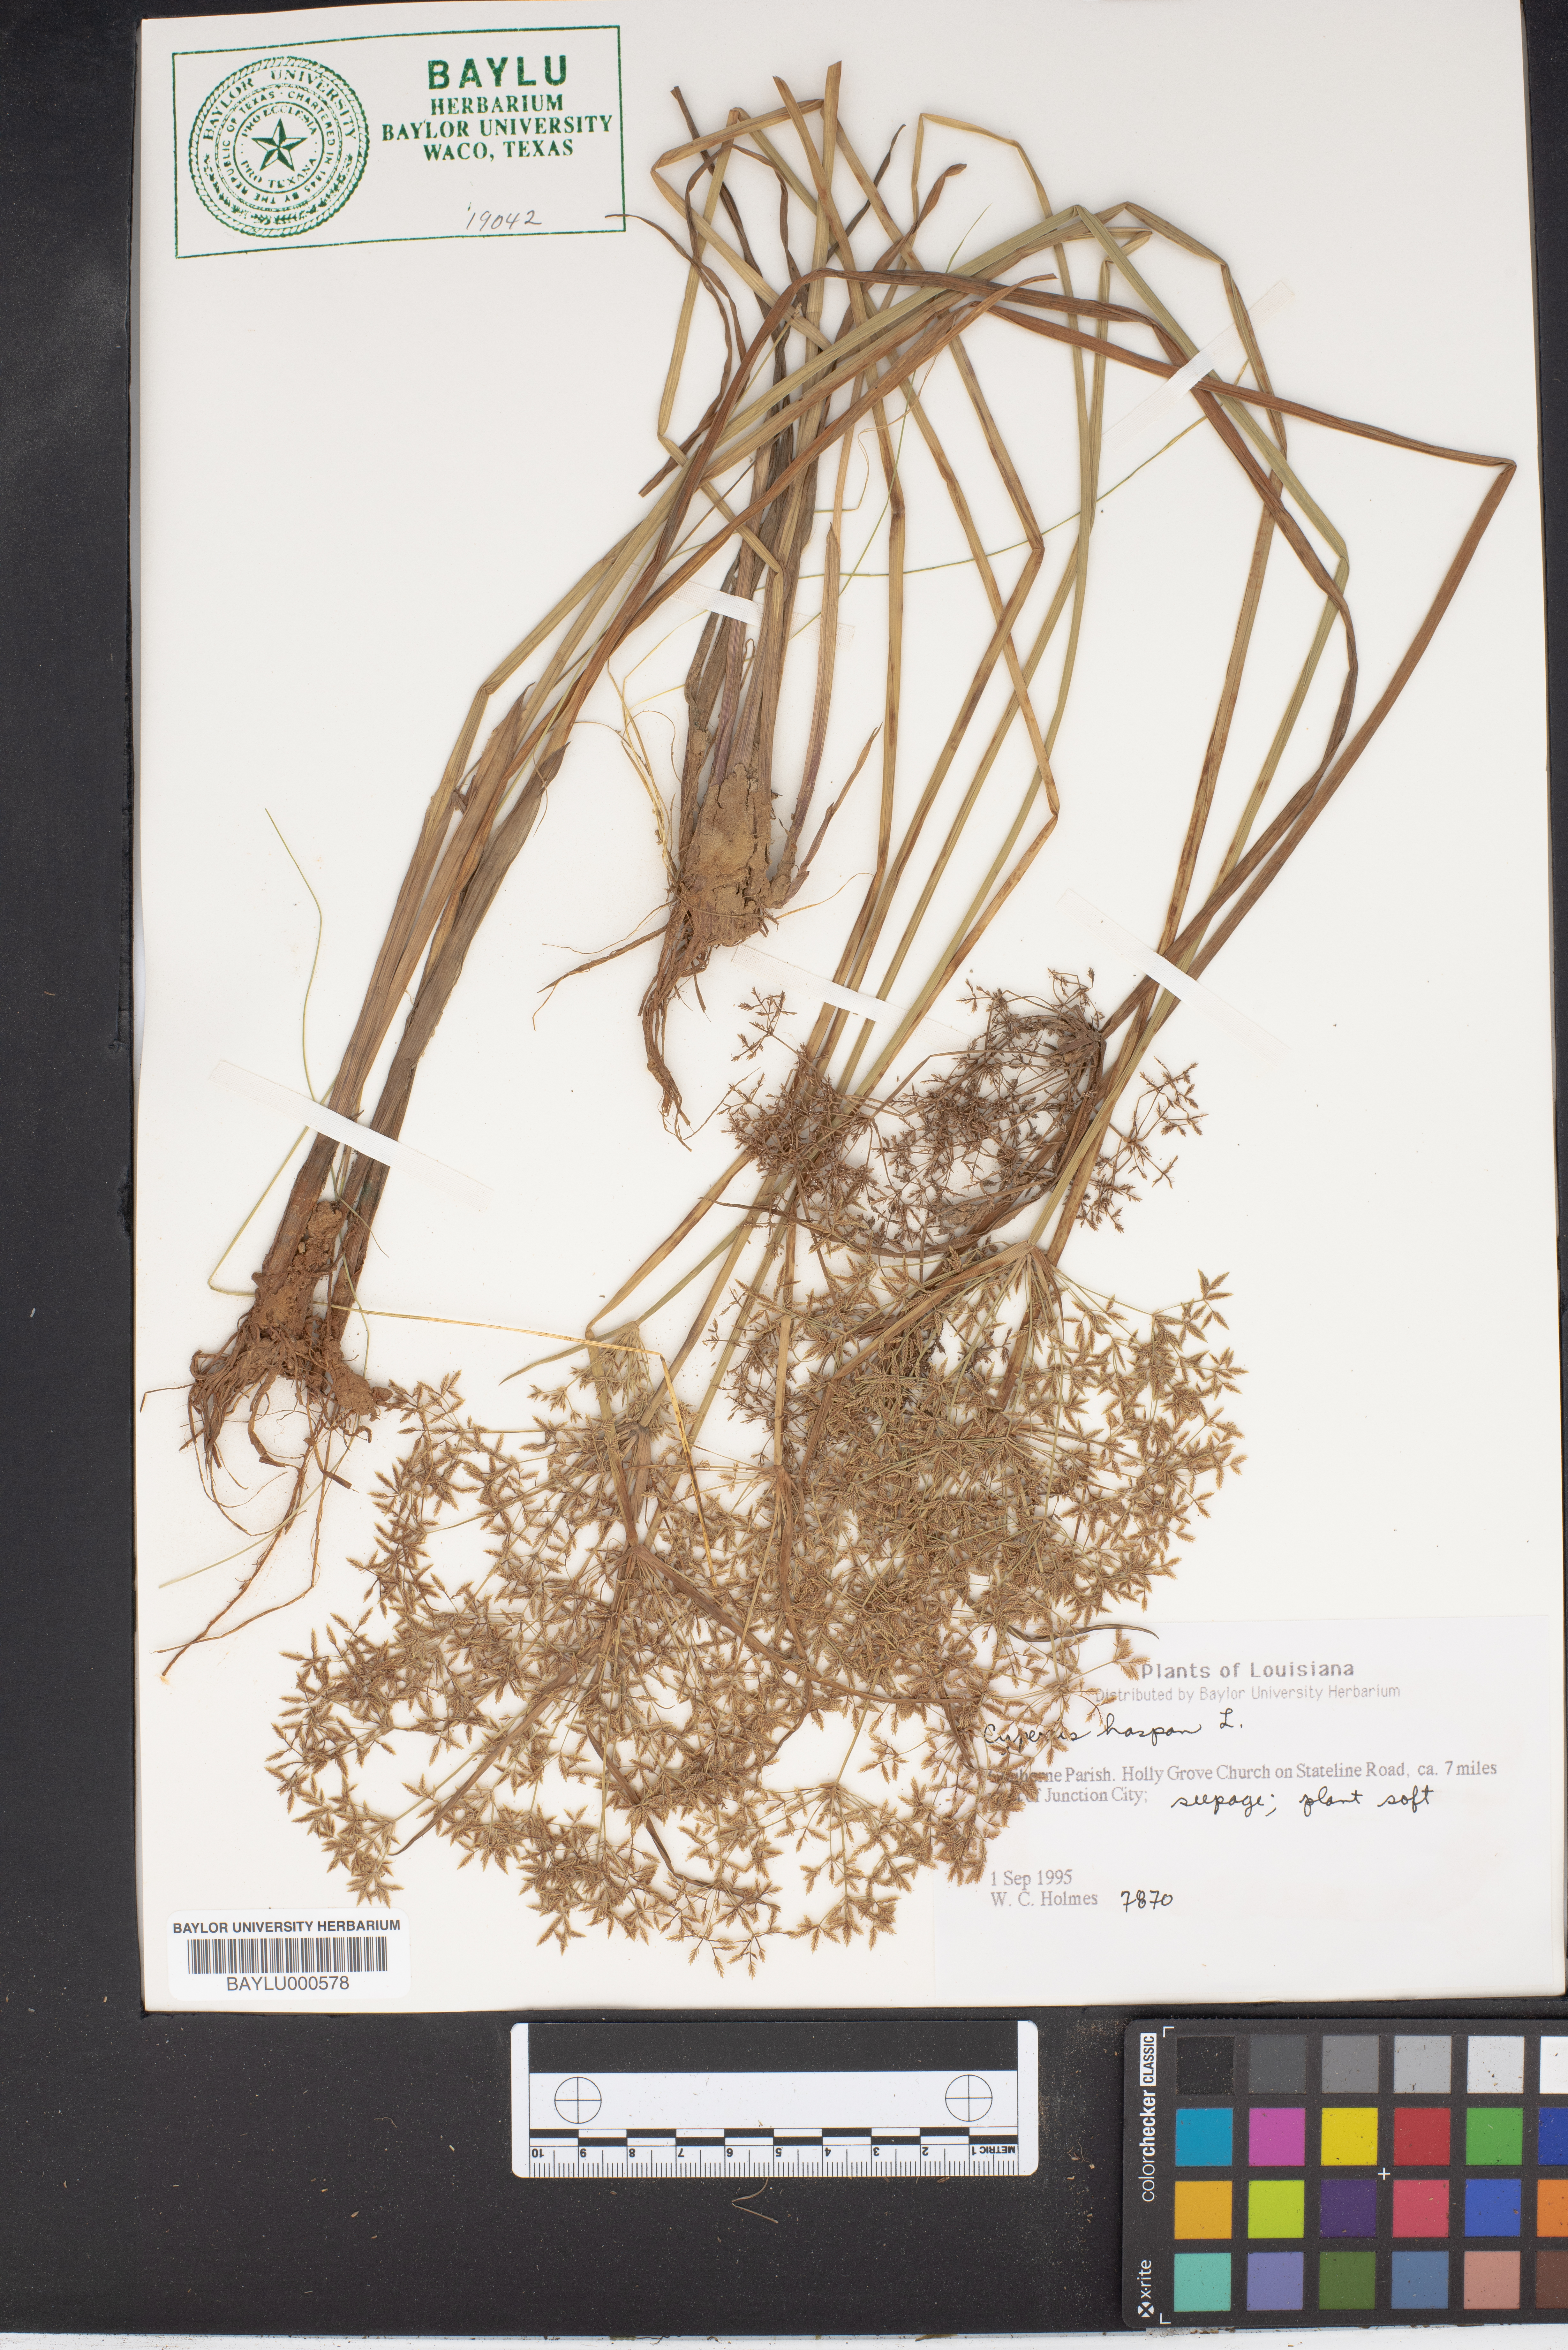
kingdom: Plantae
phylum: Tracheophyta
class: Liliopsida
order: Poales
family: Cyperaceae
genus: Cyperus
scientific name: Cyperus haspan
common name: Haspan flatsedge
